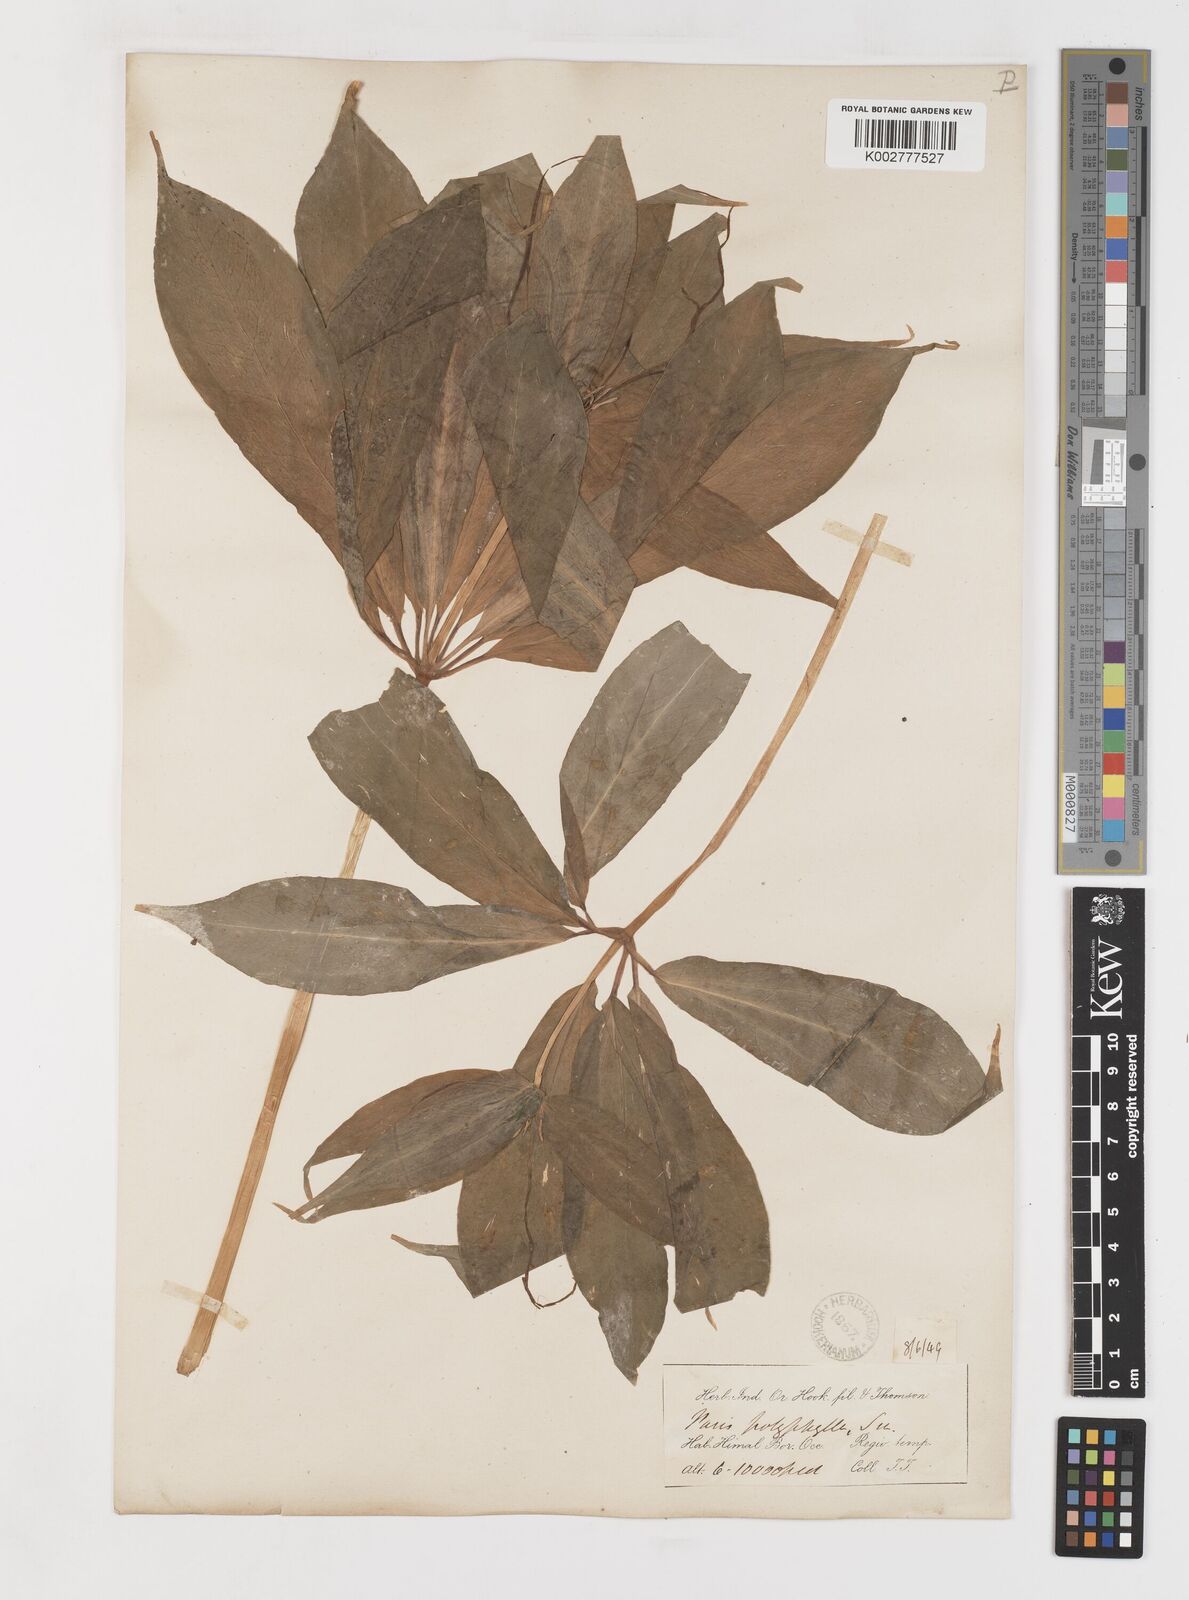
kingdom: Plantae
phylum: Tracheophyta
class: Liliopsida
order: Liliales
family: Melanthiaceae
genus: Paris
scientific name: Paris polyphylla
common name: Love apple
